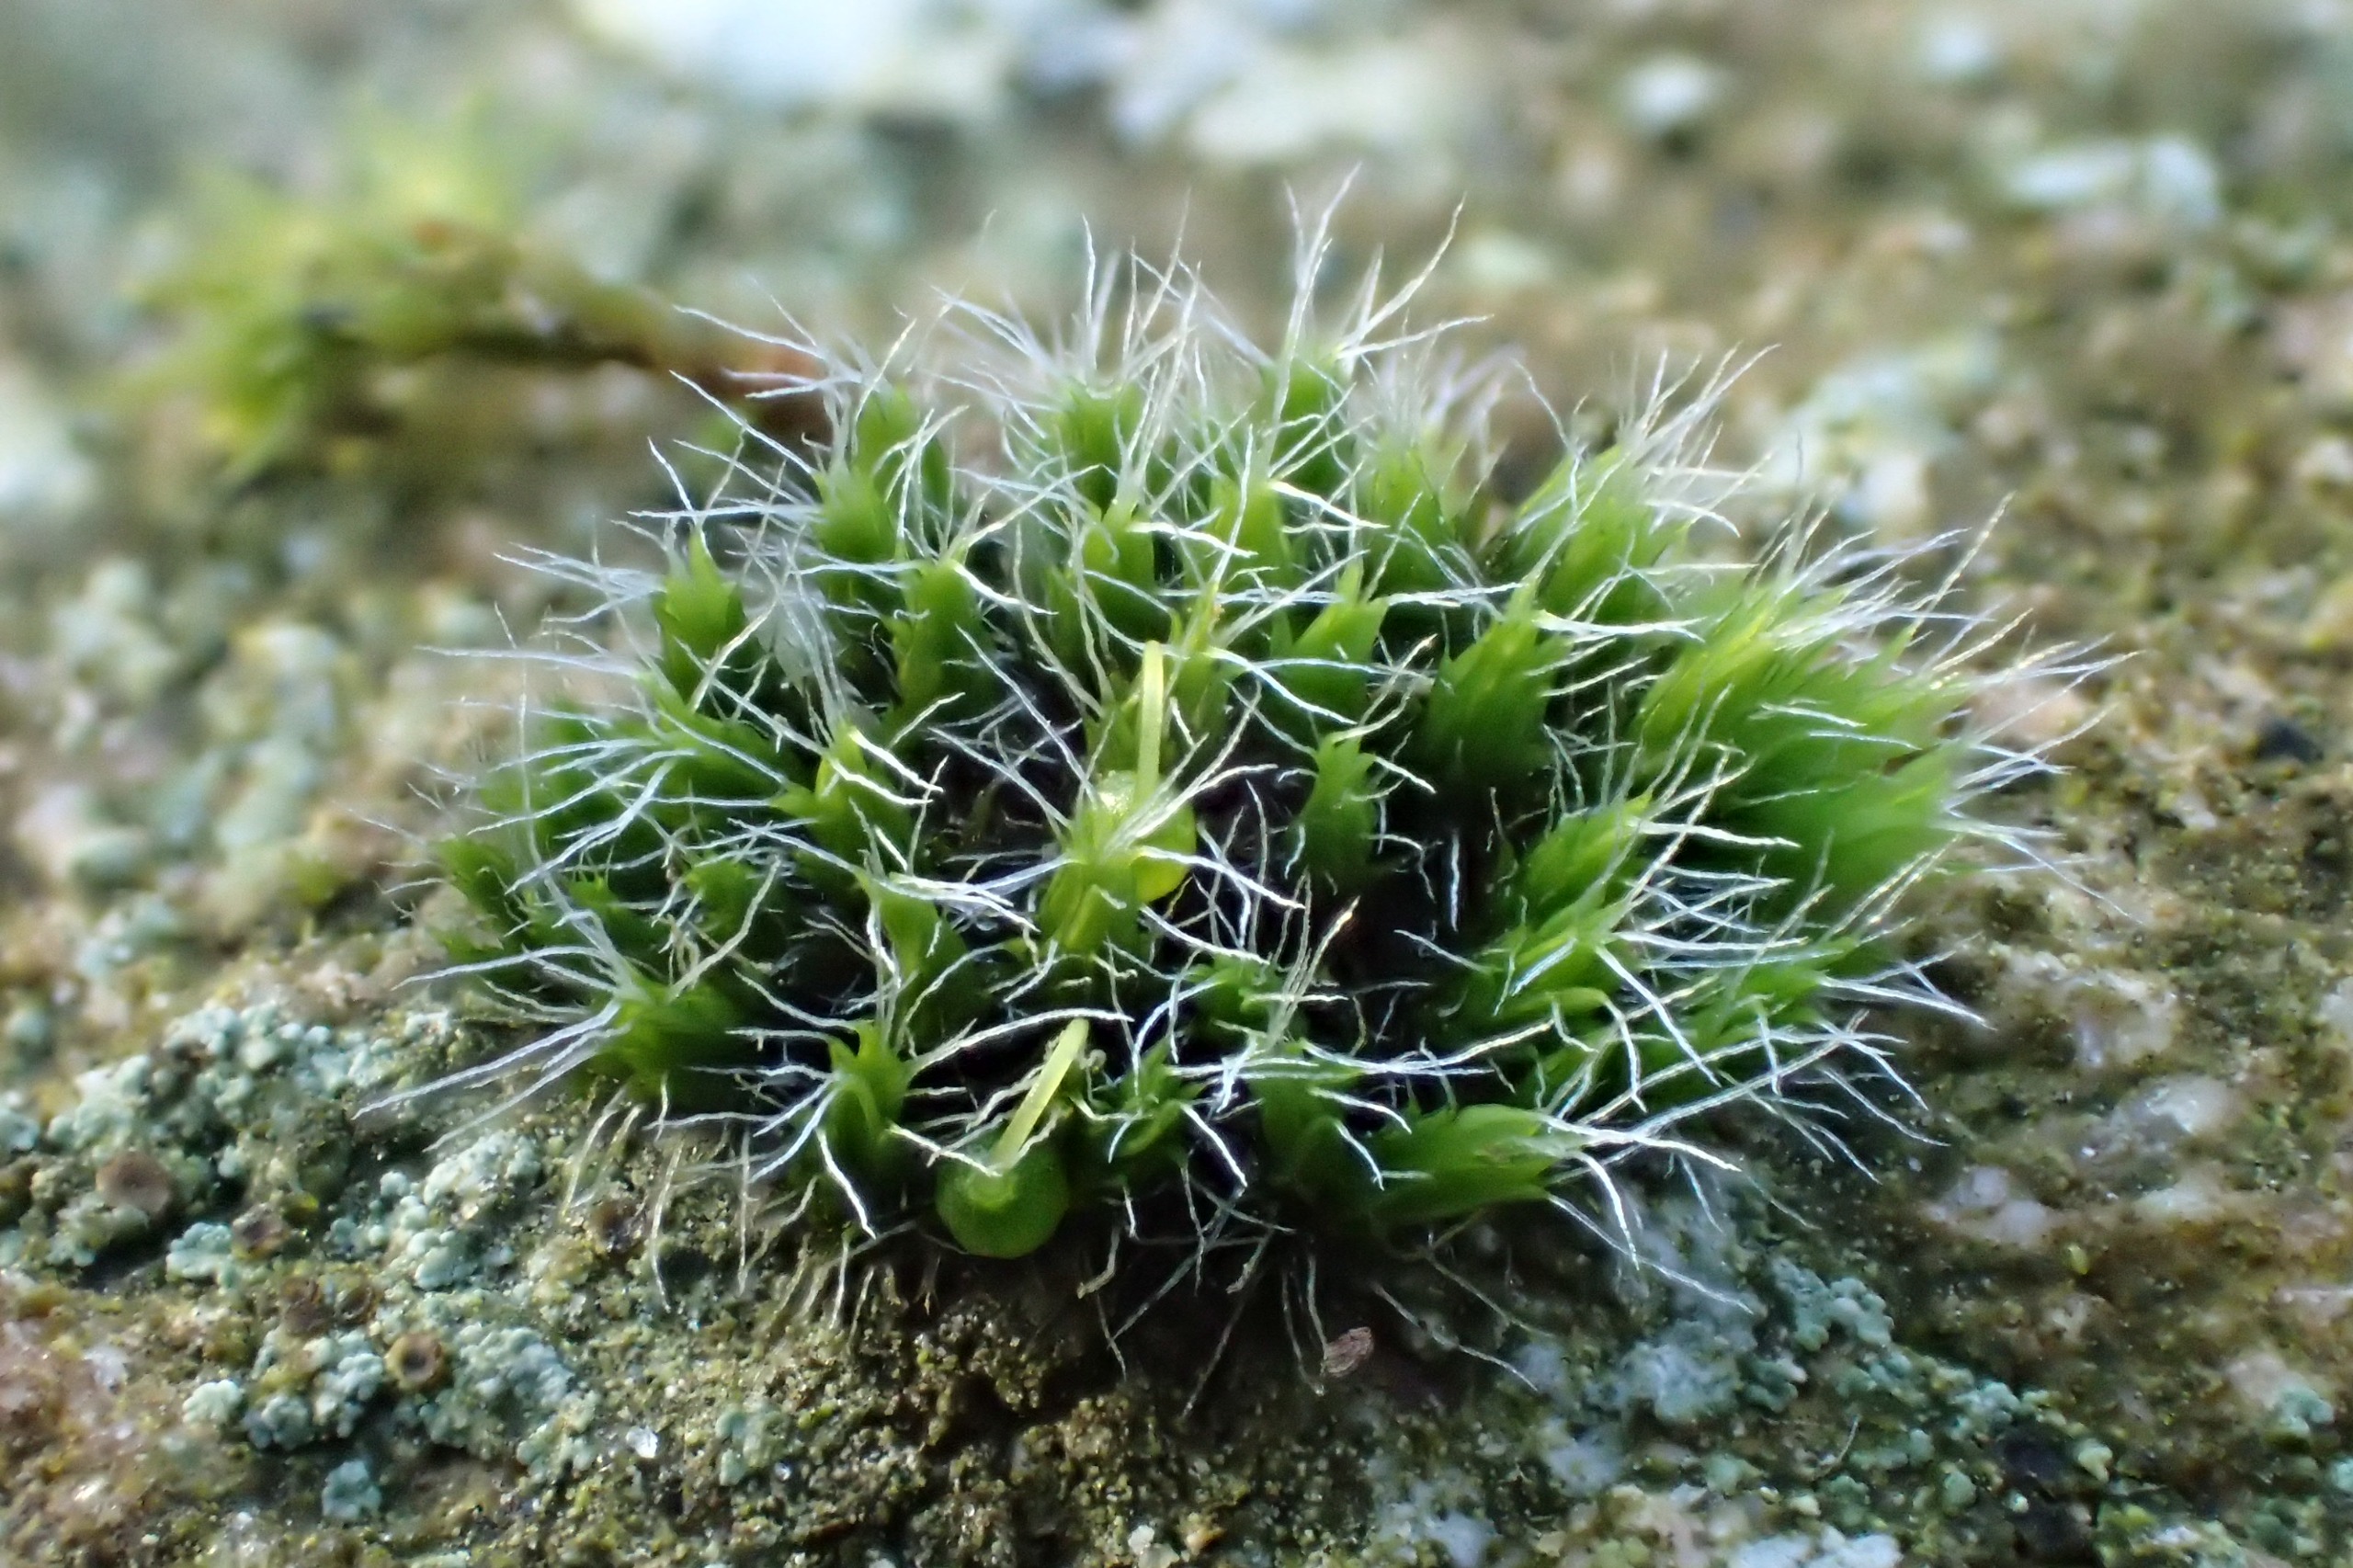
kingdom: Plantae
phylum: Bryophyta
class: Bryopsida
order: Grimmiales
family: Grimmiaceae
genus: Grimmia
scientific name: Grimmia pulvinata
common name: Pude-gråmos
